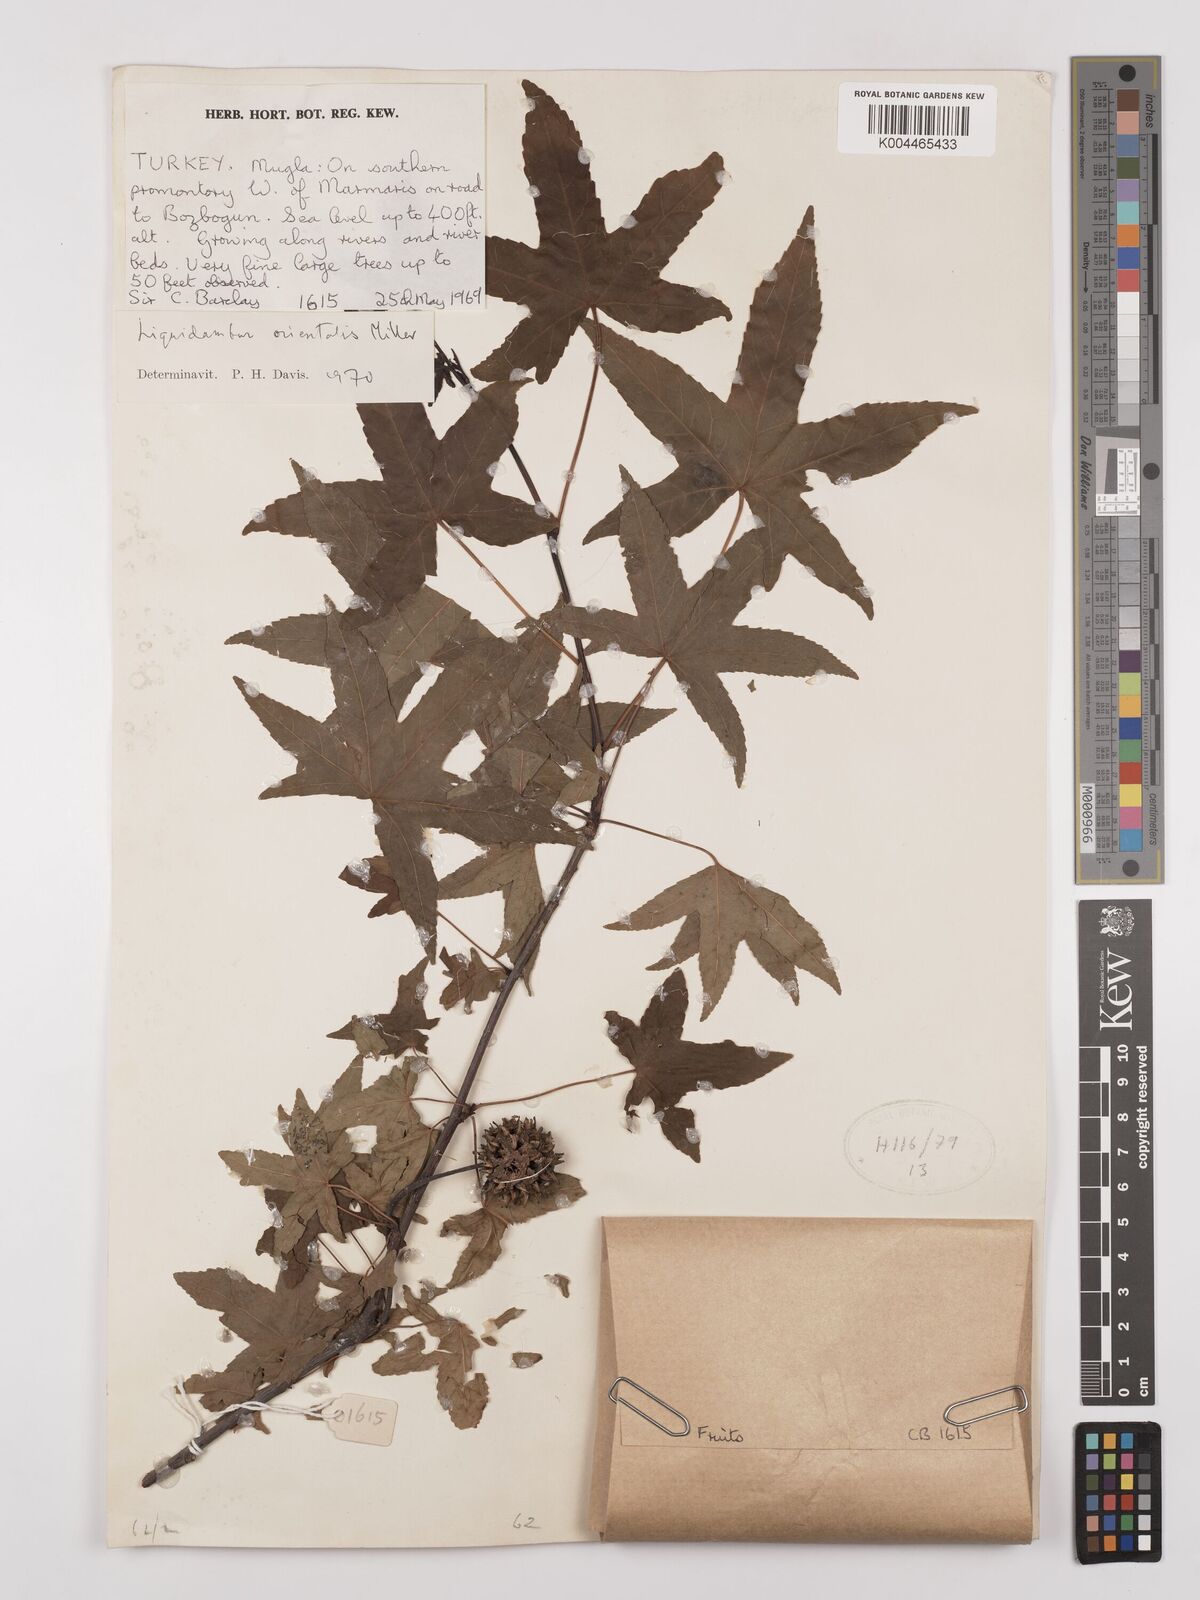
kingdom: Plantae
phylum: Tracheophyta
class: Magnoliopsida
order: Saxifragales
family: Altingiaceae
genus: Liquidambar
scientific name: Liquidambar orientalis
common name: Oriental sweetgum
